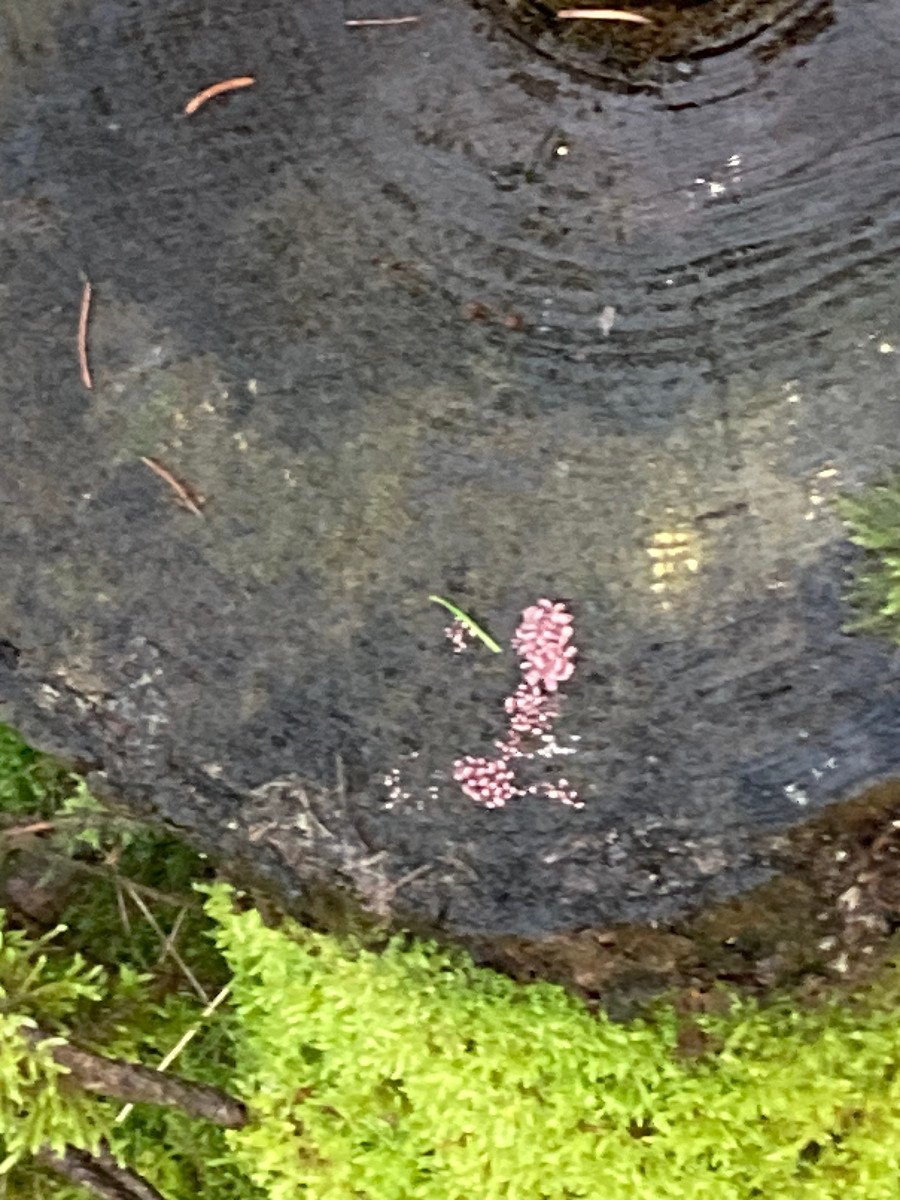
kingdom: Fungi
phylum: Ascomycota
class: Leotiomycetes
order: Helotiales
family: Gelatinodiscaceae
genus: Ascocoryne
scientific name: Ascocoryne sarcoides
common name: rødlilla sejskive
